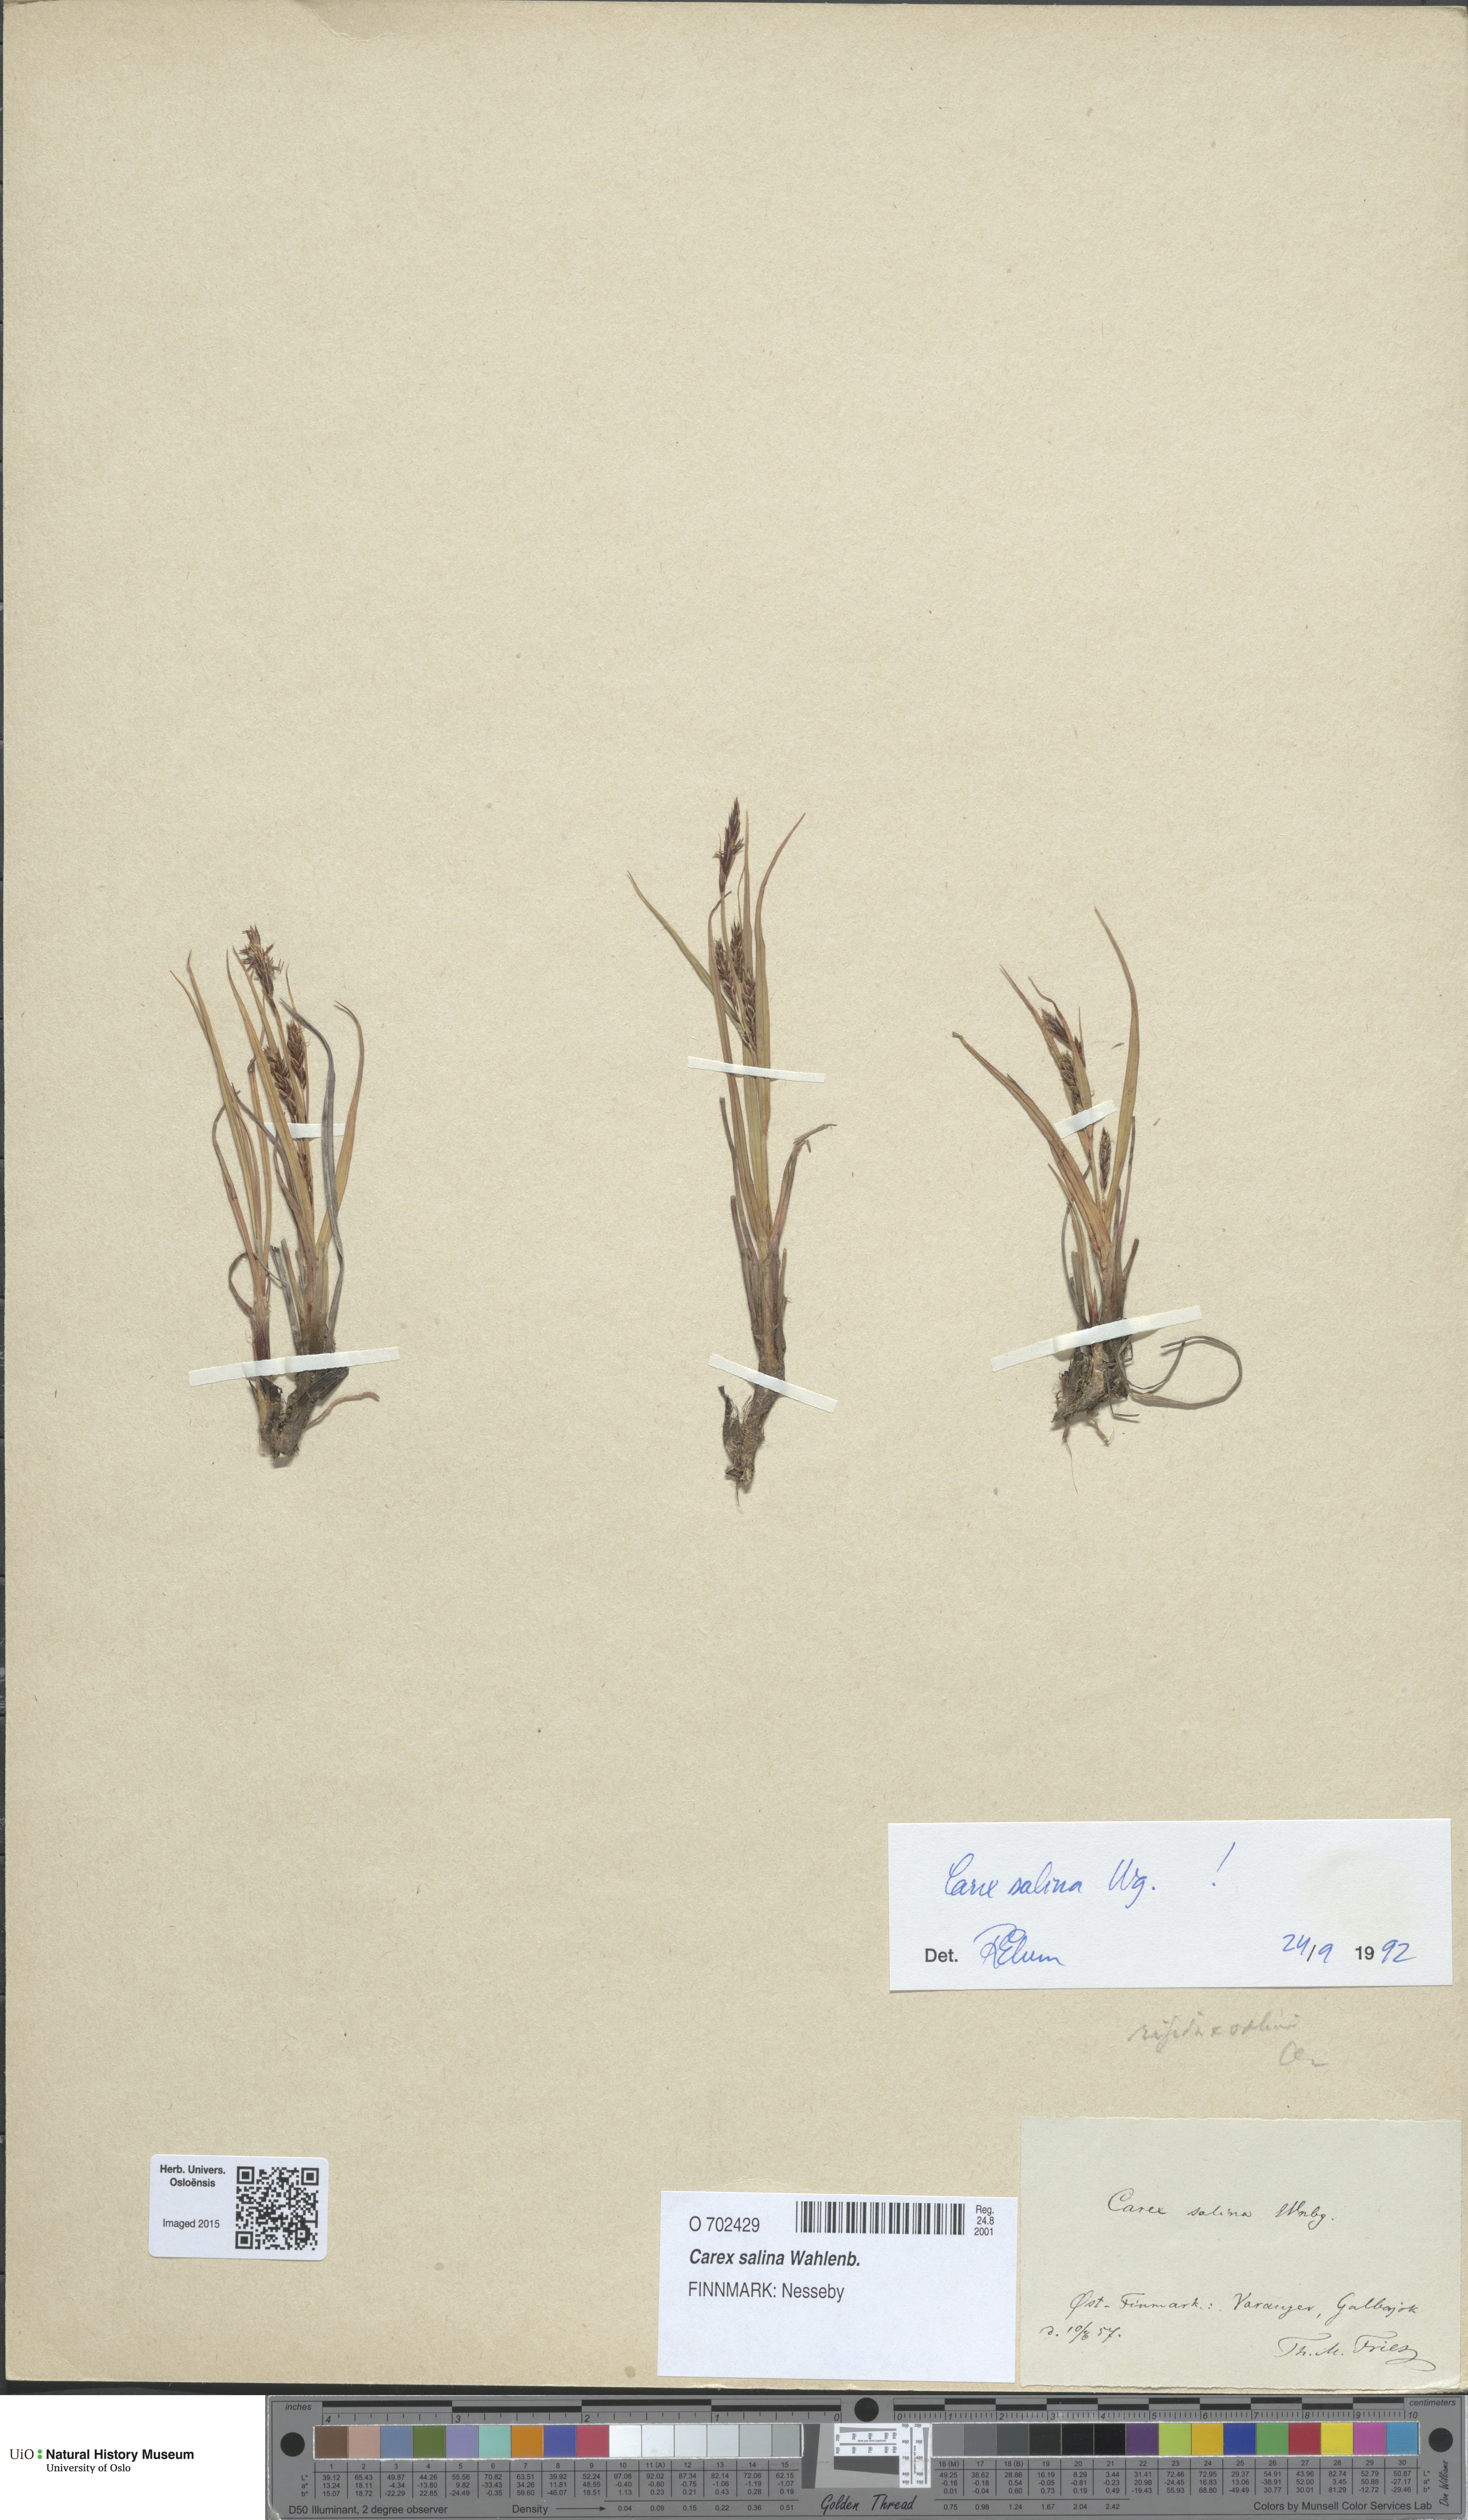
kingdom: Plantae
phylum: Tracheophyta
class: Liliopsida
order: Poales
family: Cyperaceae
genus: Carex
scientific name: Carex salina
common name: Saltmarsh sedge
